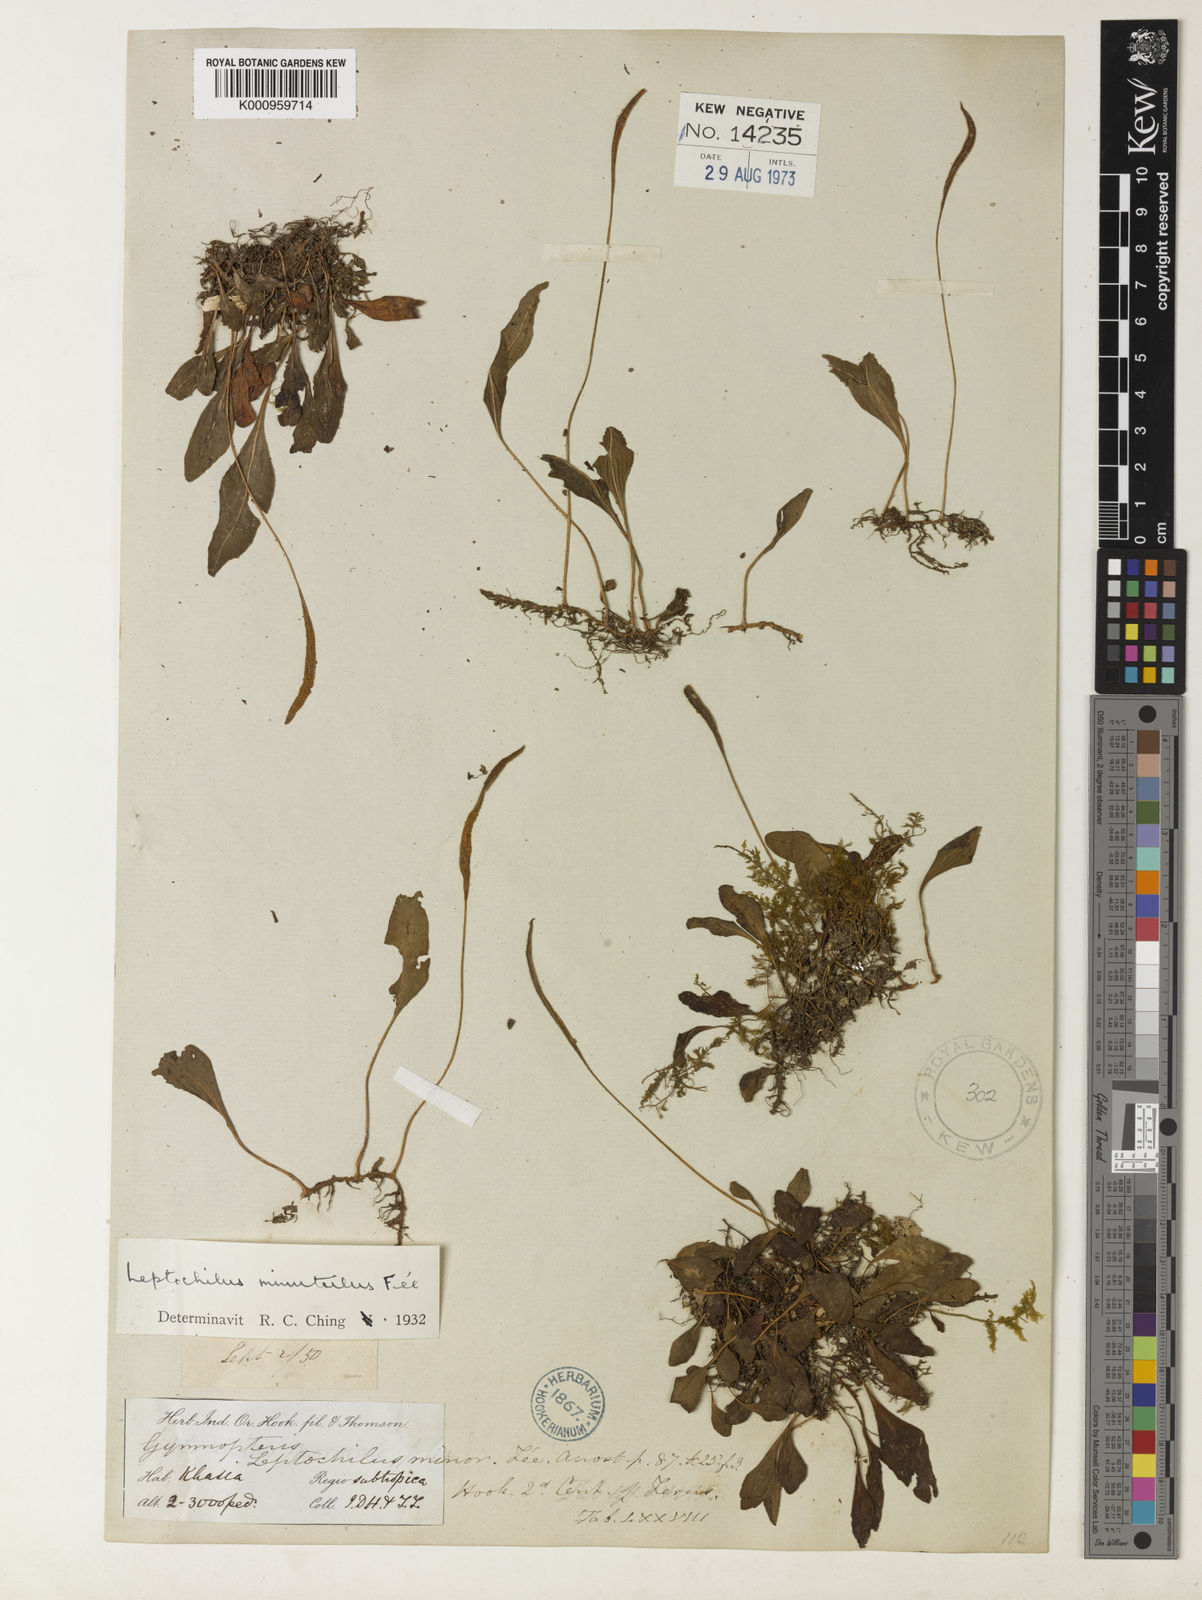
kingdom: Plantae
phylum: Tracheophyta
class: Polypodiopsida
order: Polypodiales
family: Polypodiaceae
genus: Leptochilus
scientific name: Leptochilus
